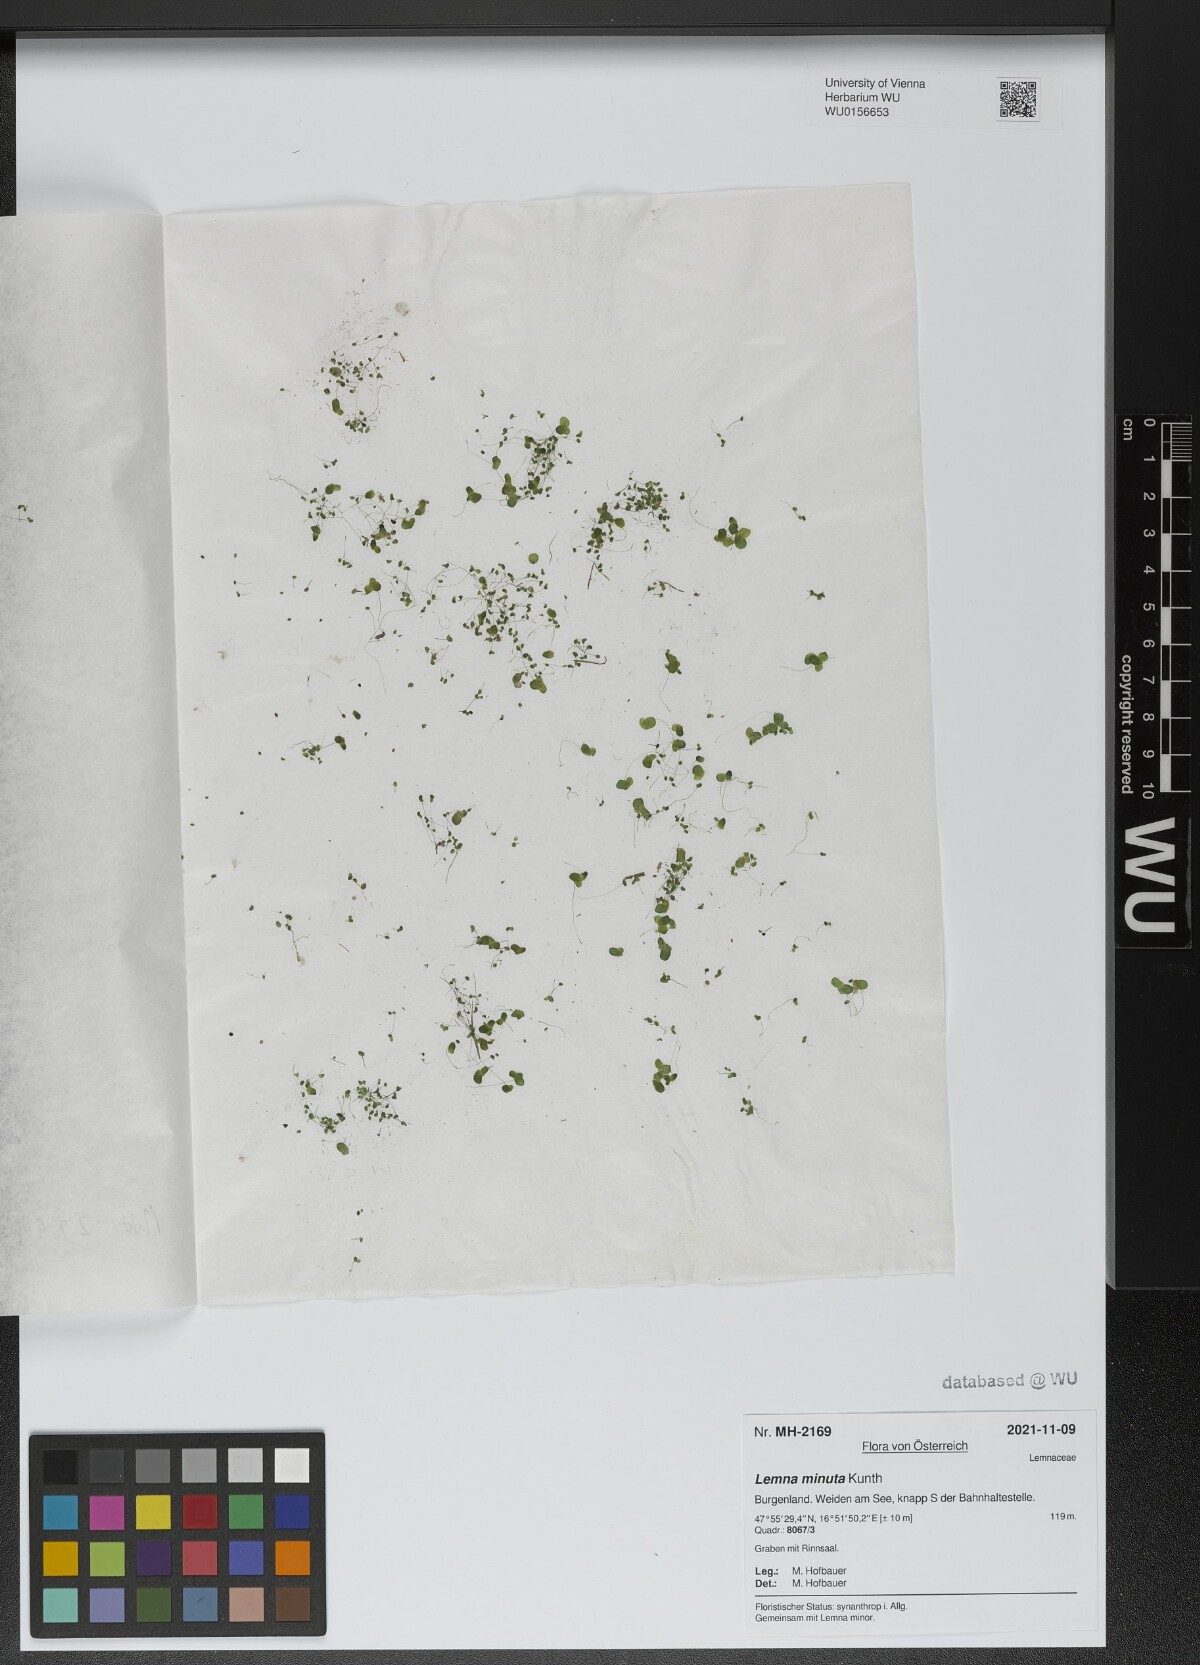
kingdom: Plantae
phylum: Tracheophyta
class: Liliopsida
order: Alismatales
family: Araceae
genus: Lemna
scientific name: Lemna minuta
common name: Least duckweed
